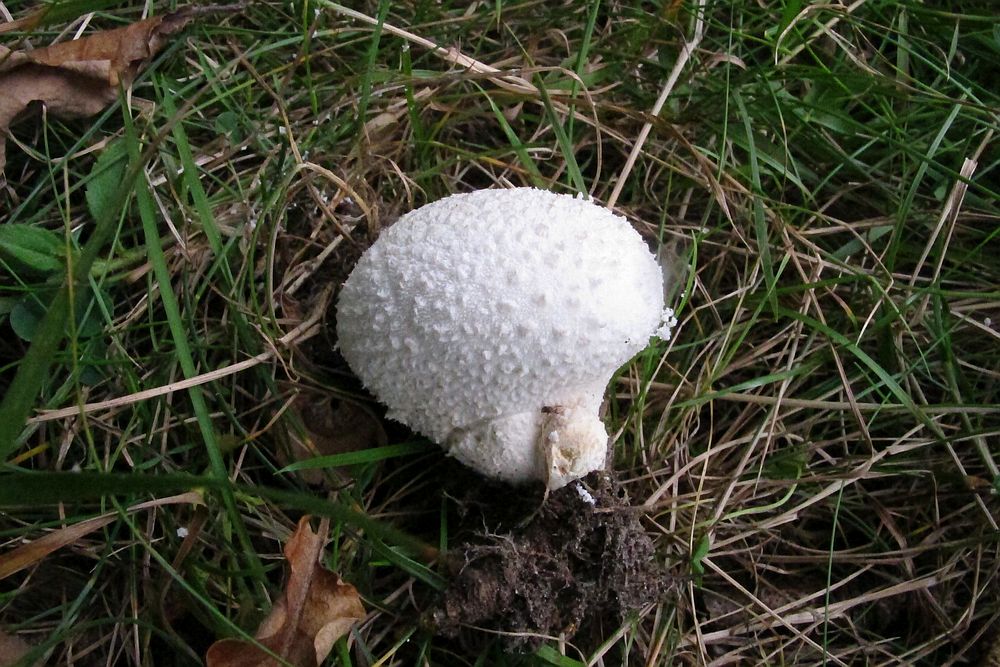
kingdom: Fungi
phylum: Basidiomycota
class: Agaricomycetes
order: Agaricales
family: Agaricaceae
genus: Lycoperdon
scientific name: Lycoperdon
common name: støvbold
